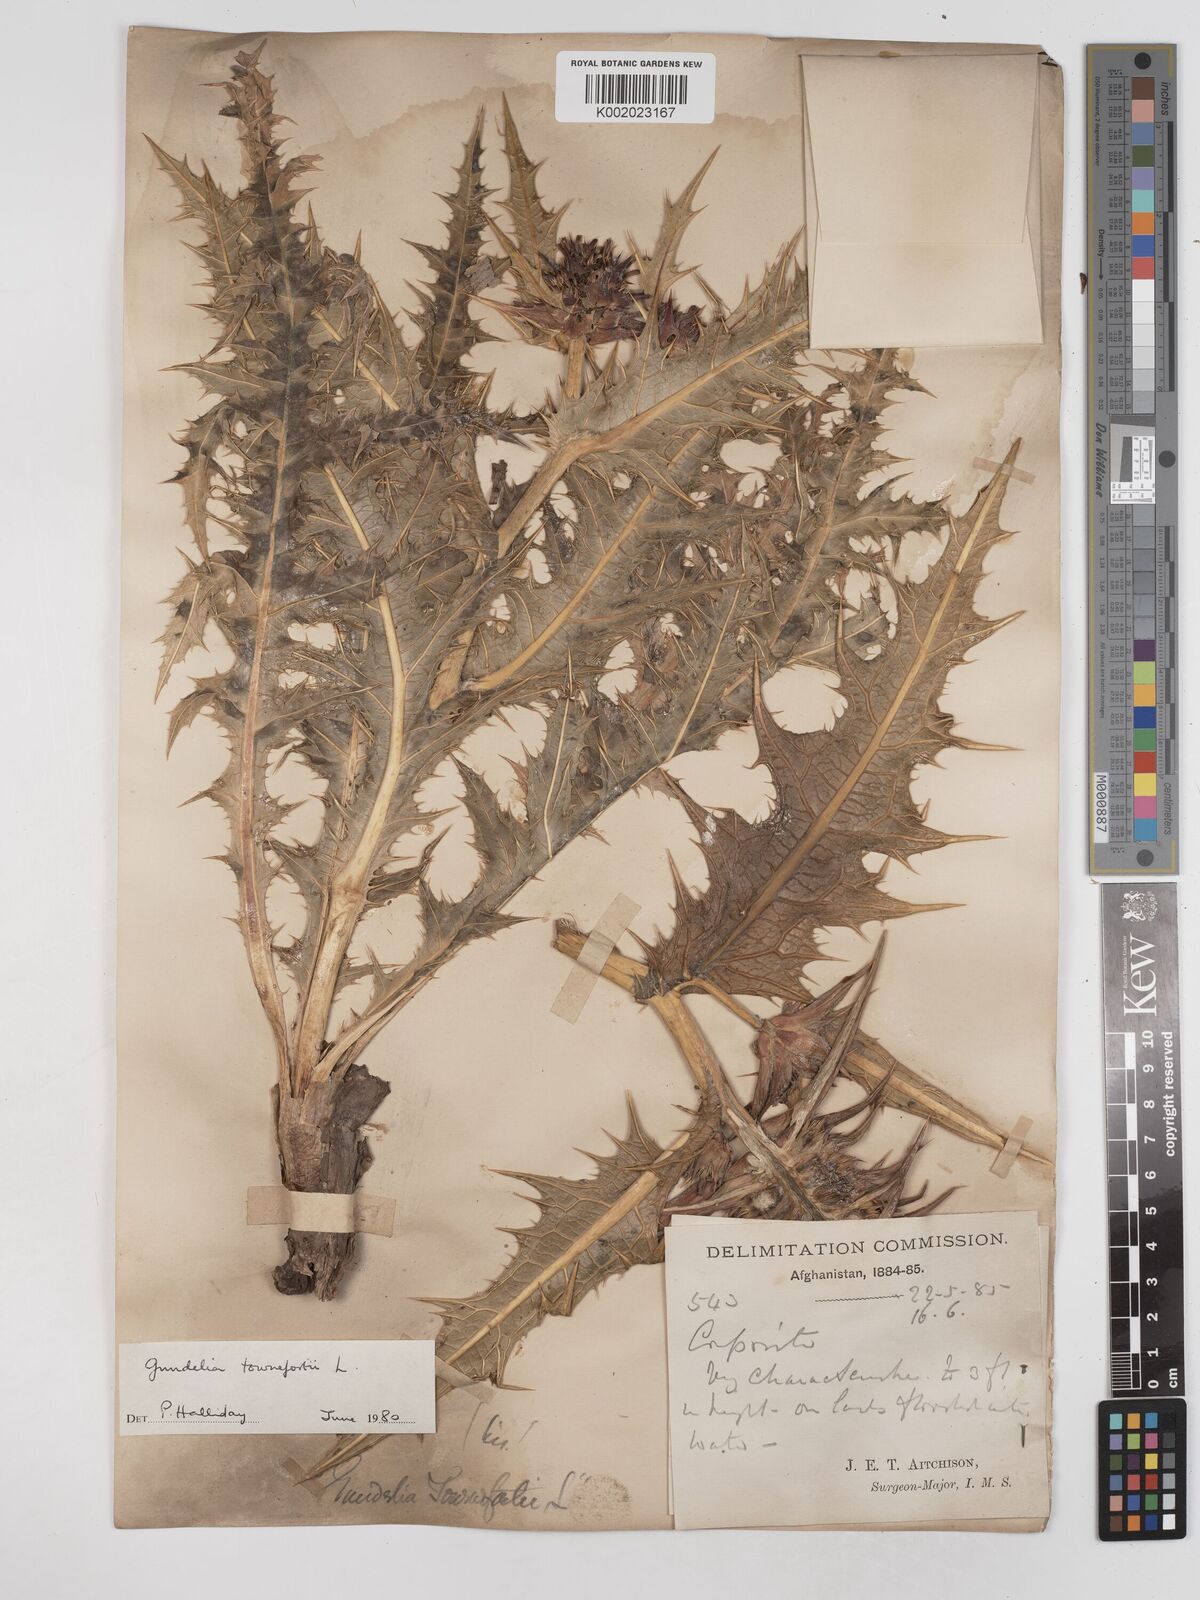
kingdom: Plantae
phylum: Tracheophyta
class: Magnoliopsida
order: Asterales
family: Asteraceae
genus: Gundelia
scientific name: Gundelia tournefortii
